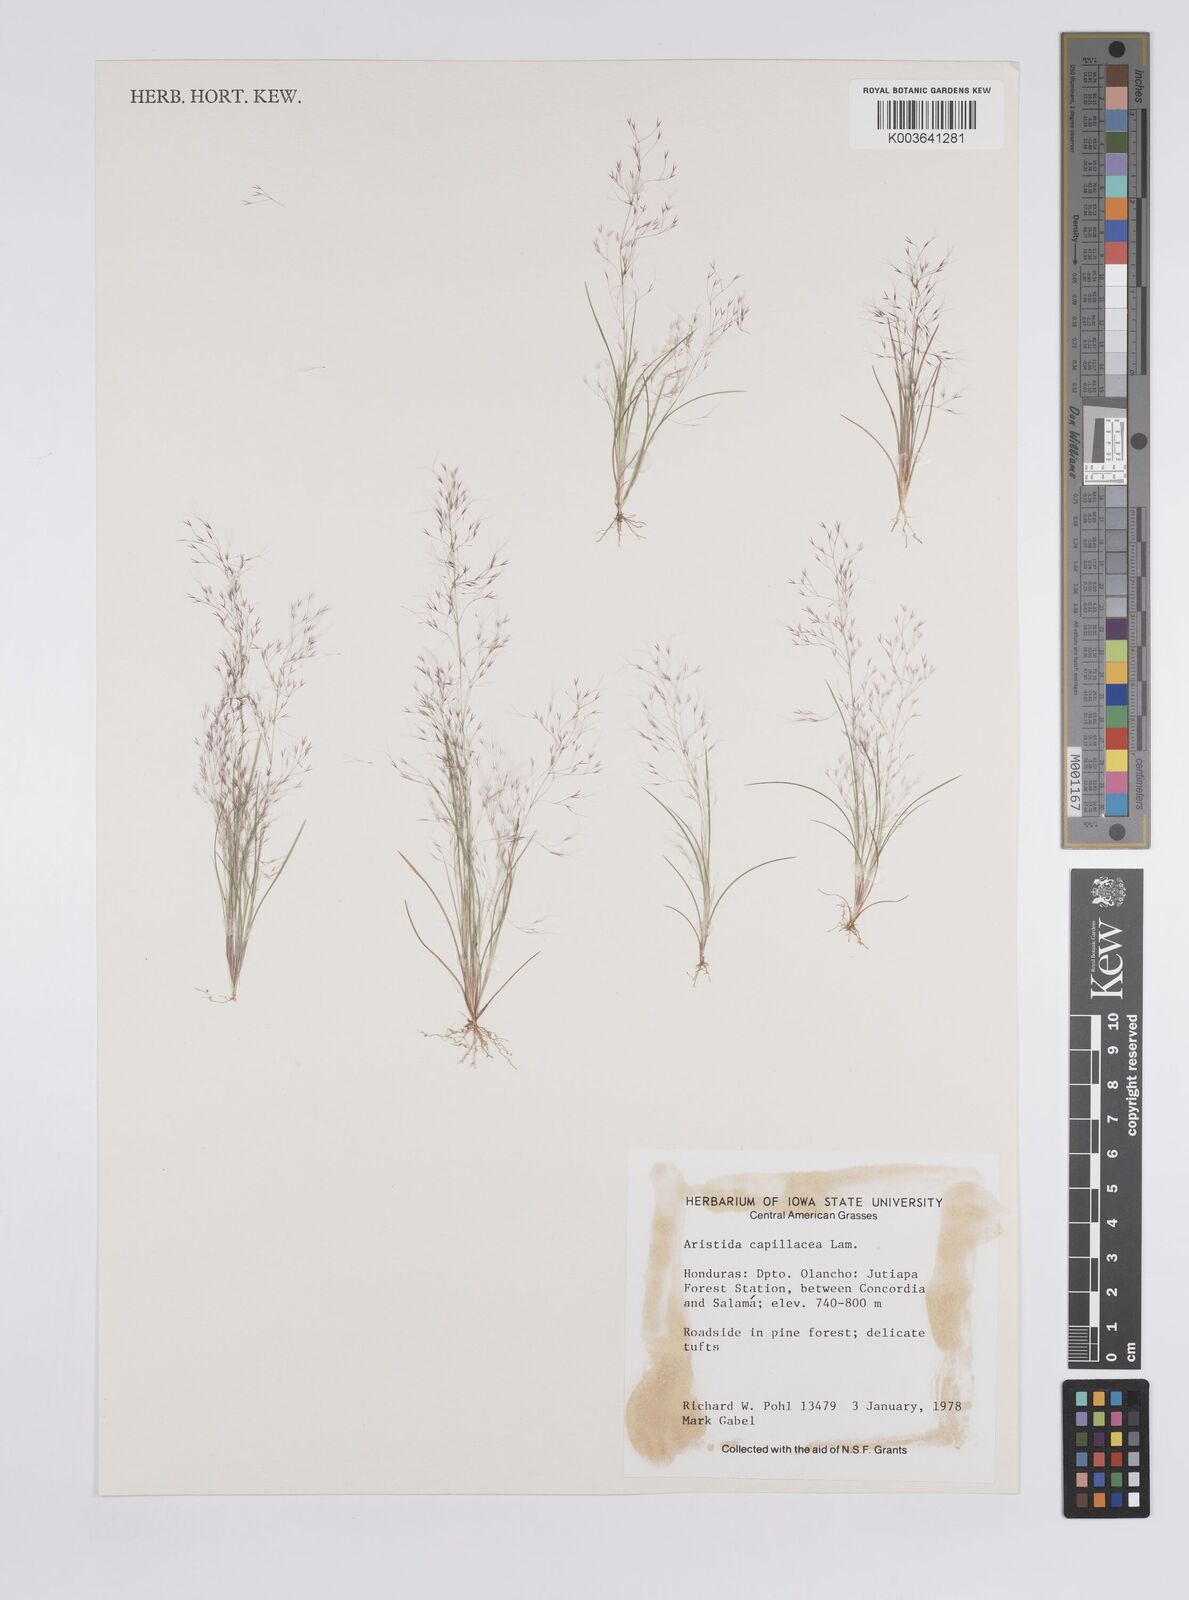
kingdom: Plantae
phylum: Tracheophyta
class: Liliopsida
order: Poales
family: Poaceae
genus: Aristida
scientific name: Aristida capillacea
